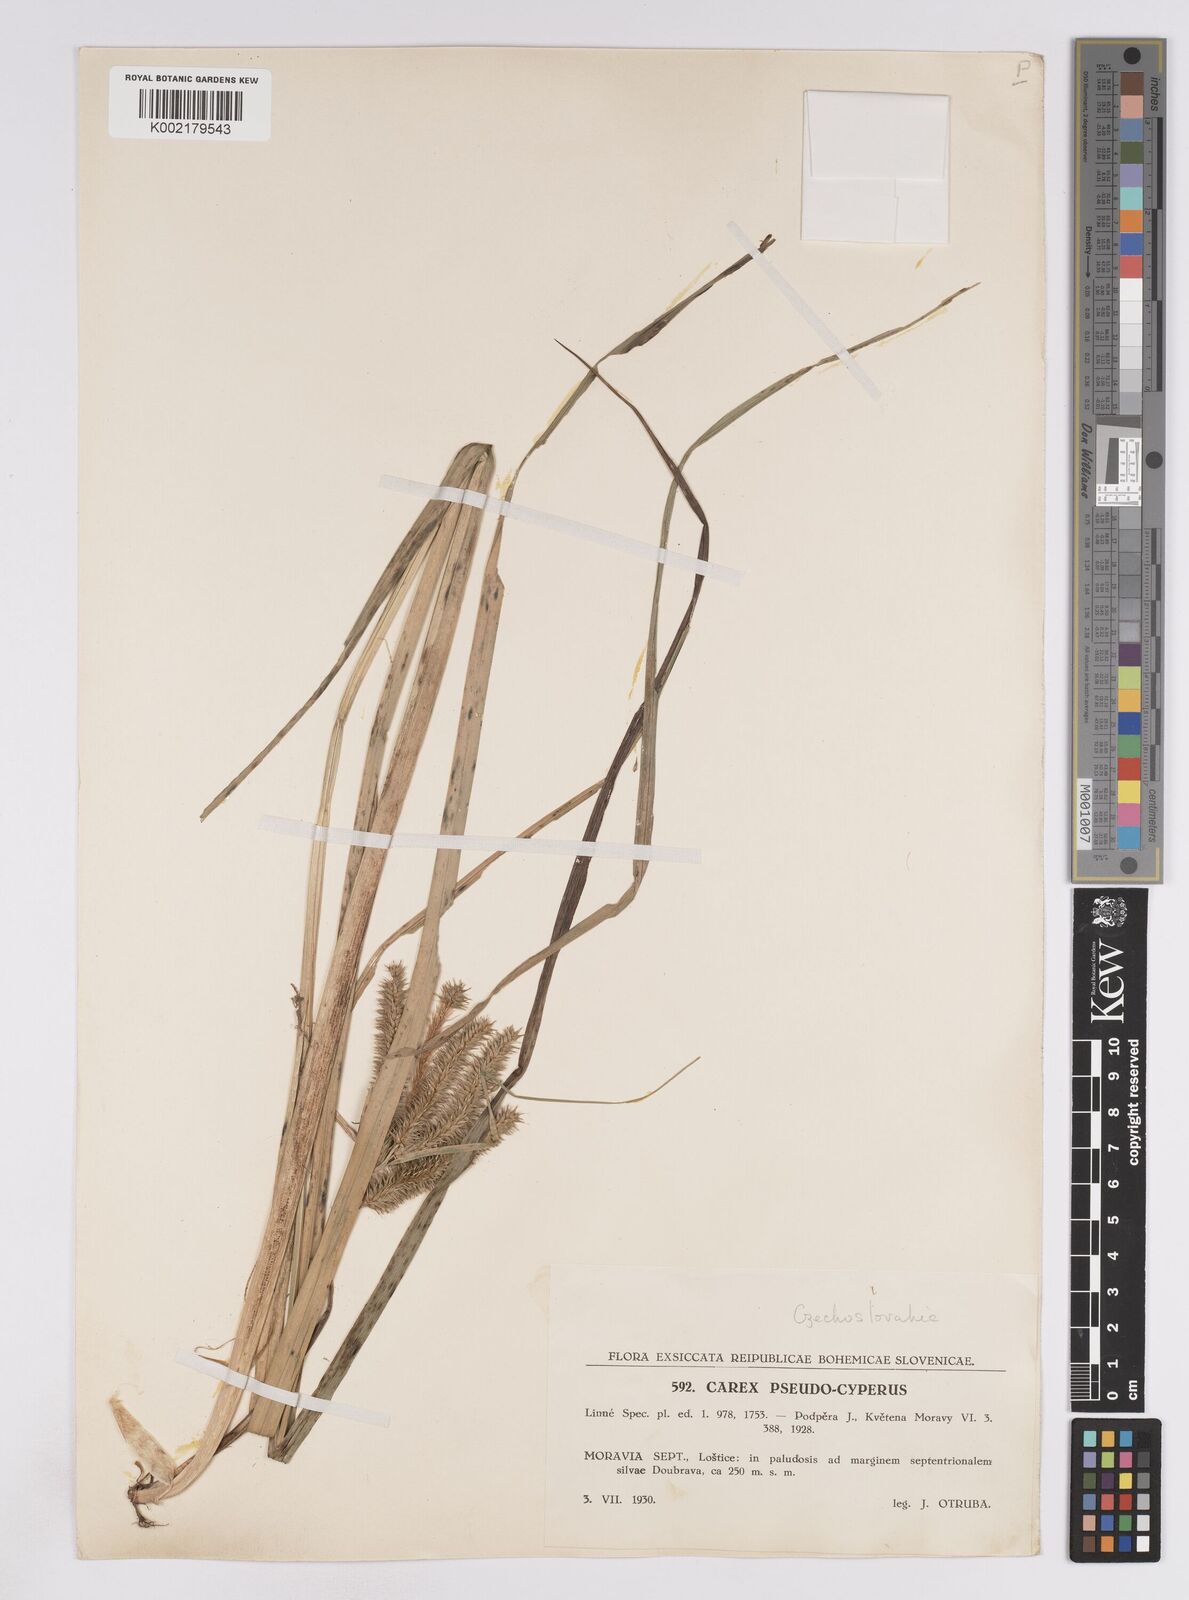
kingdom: Plantae
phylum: Tracheophyta
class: Liliopsida
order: Poales
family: Cyperaceae
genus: Carex
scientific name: Carex pseudocyperus
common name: Cyperus sedge
